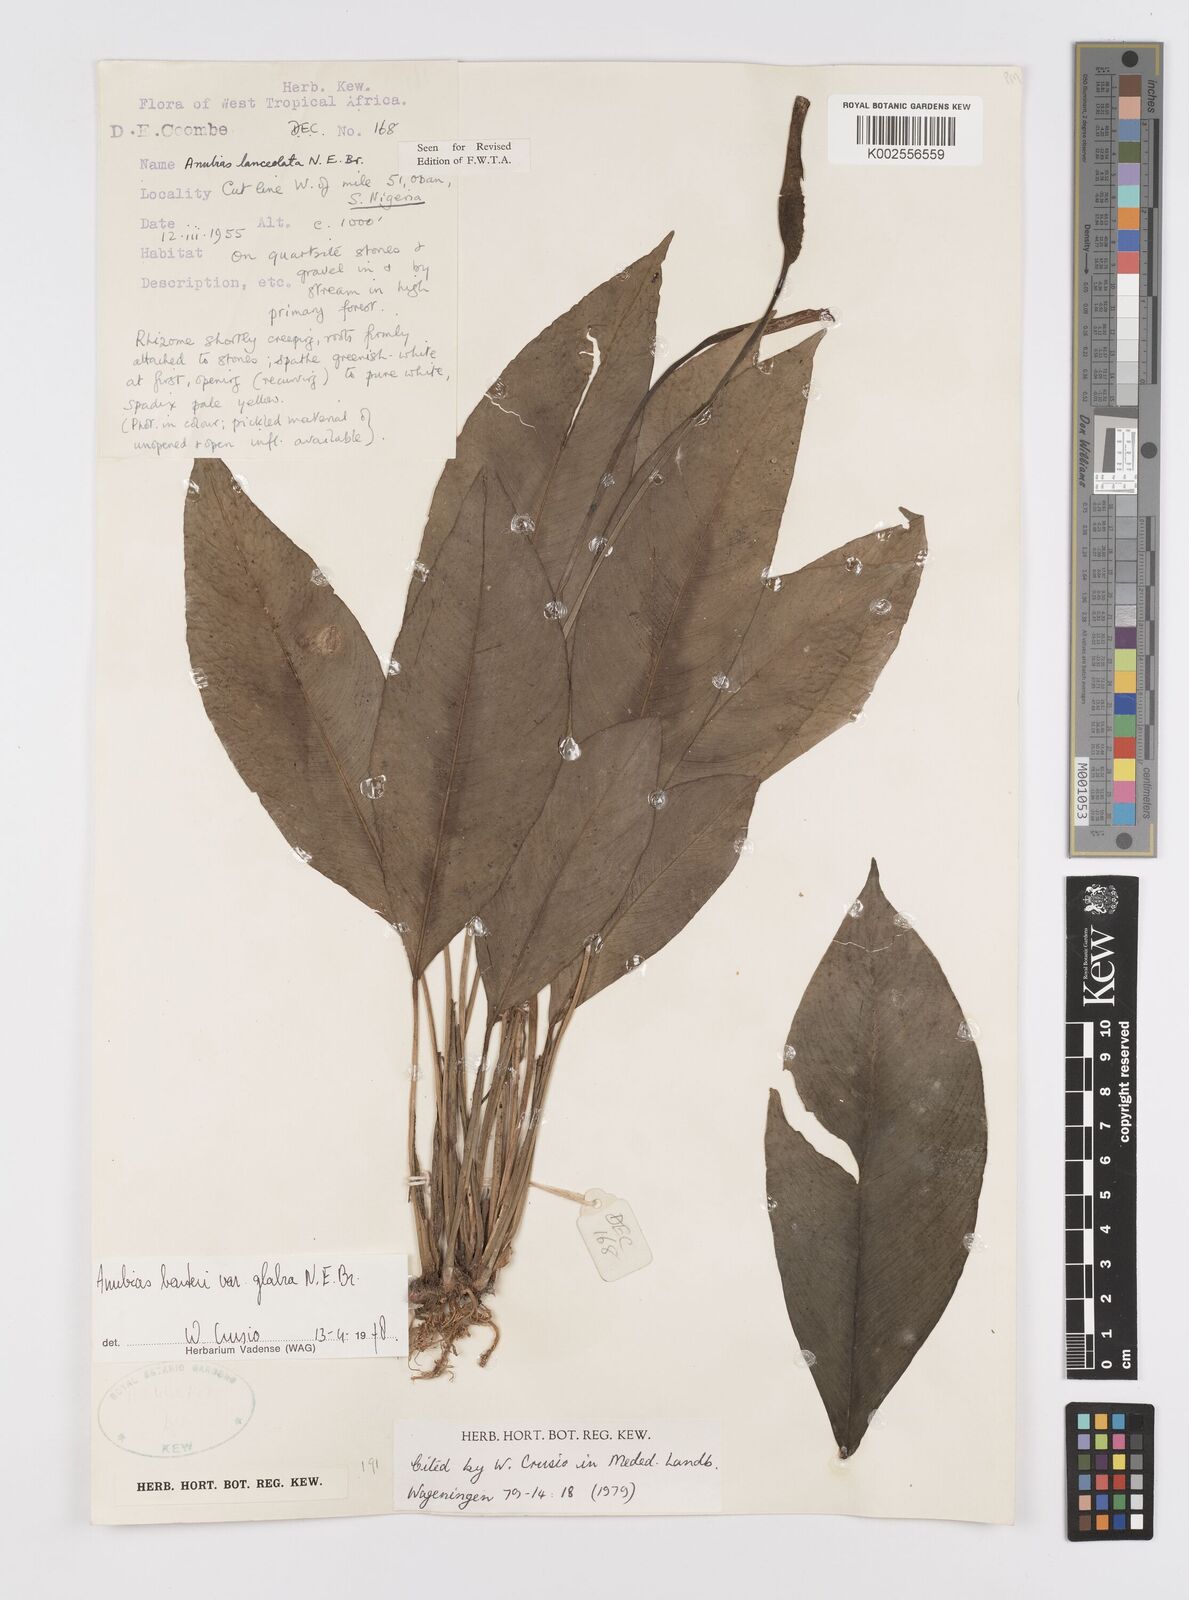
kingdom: Plantae
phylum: Tracheophyta
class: Liliopsida
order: Alismatales
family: Araceae
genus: Anubias
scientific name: Anubias barteri
